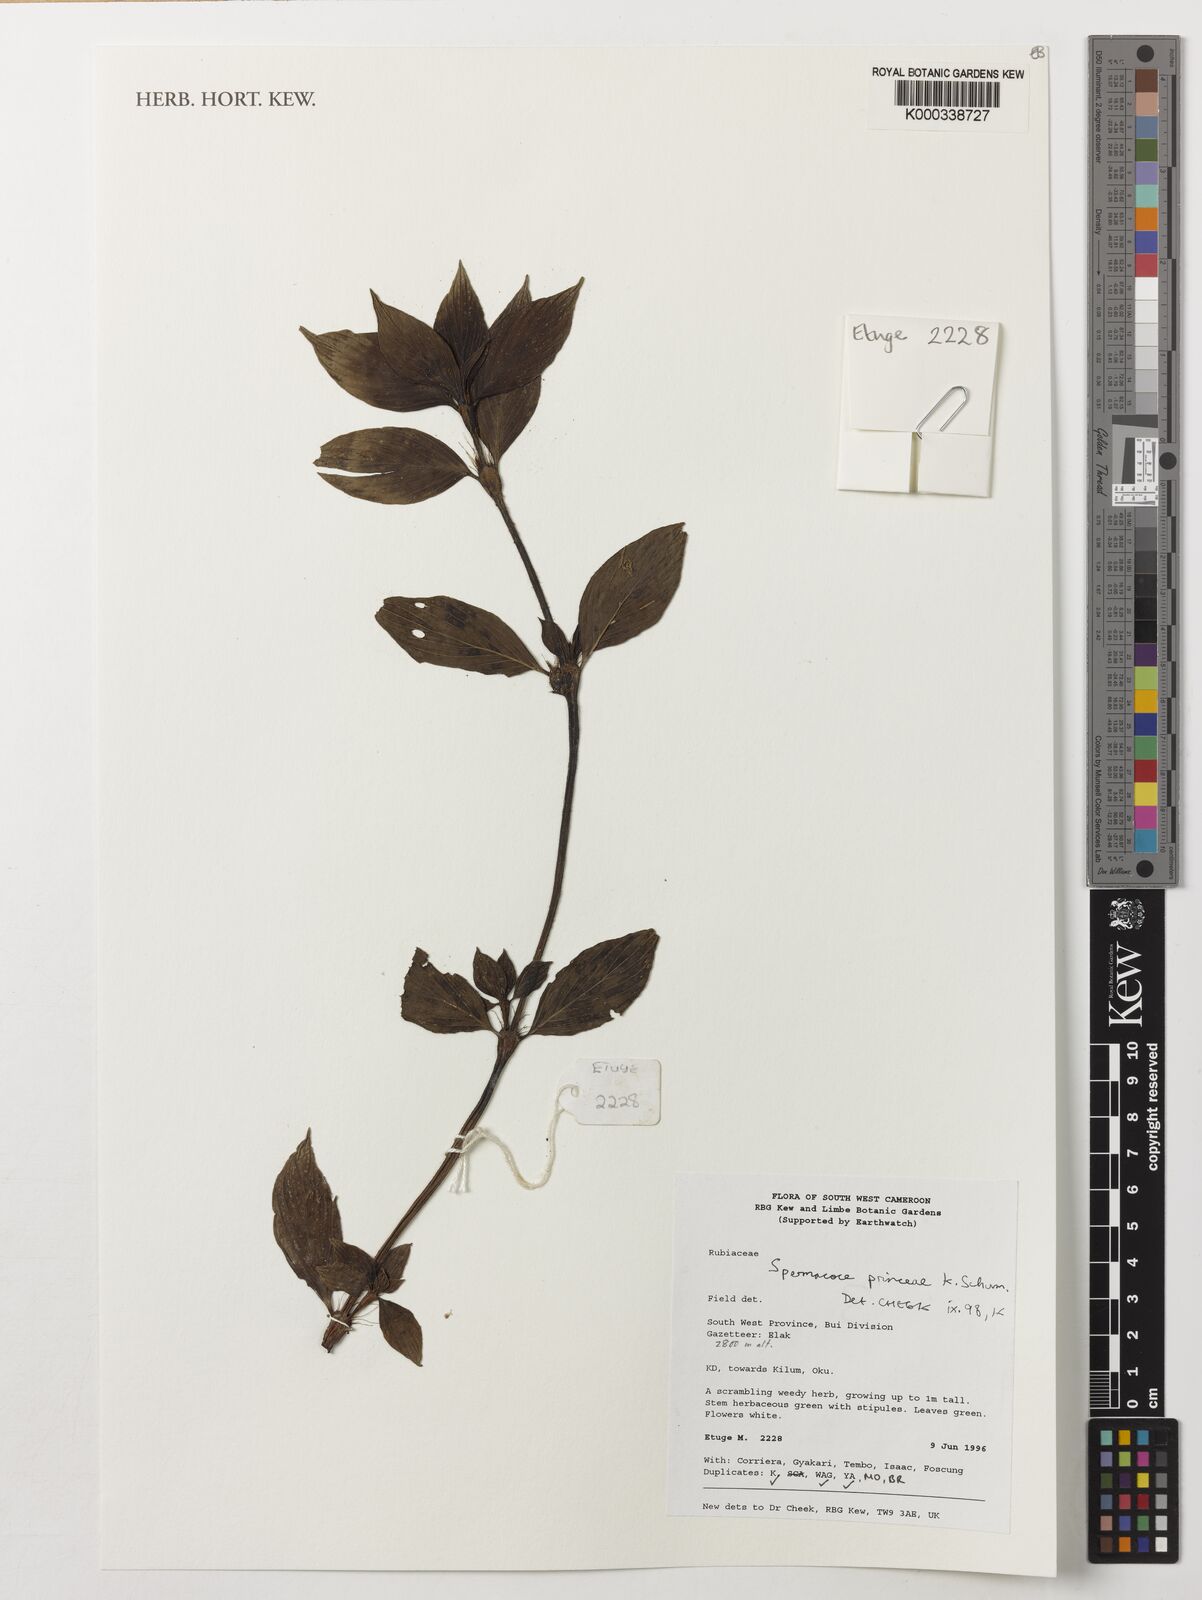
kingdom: Plantae
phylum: Tracheophyta
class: Magnoliopsida
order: Gentianales
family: Rubiaceae
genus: Spermacoce
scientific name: Spermacoce princeae
